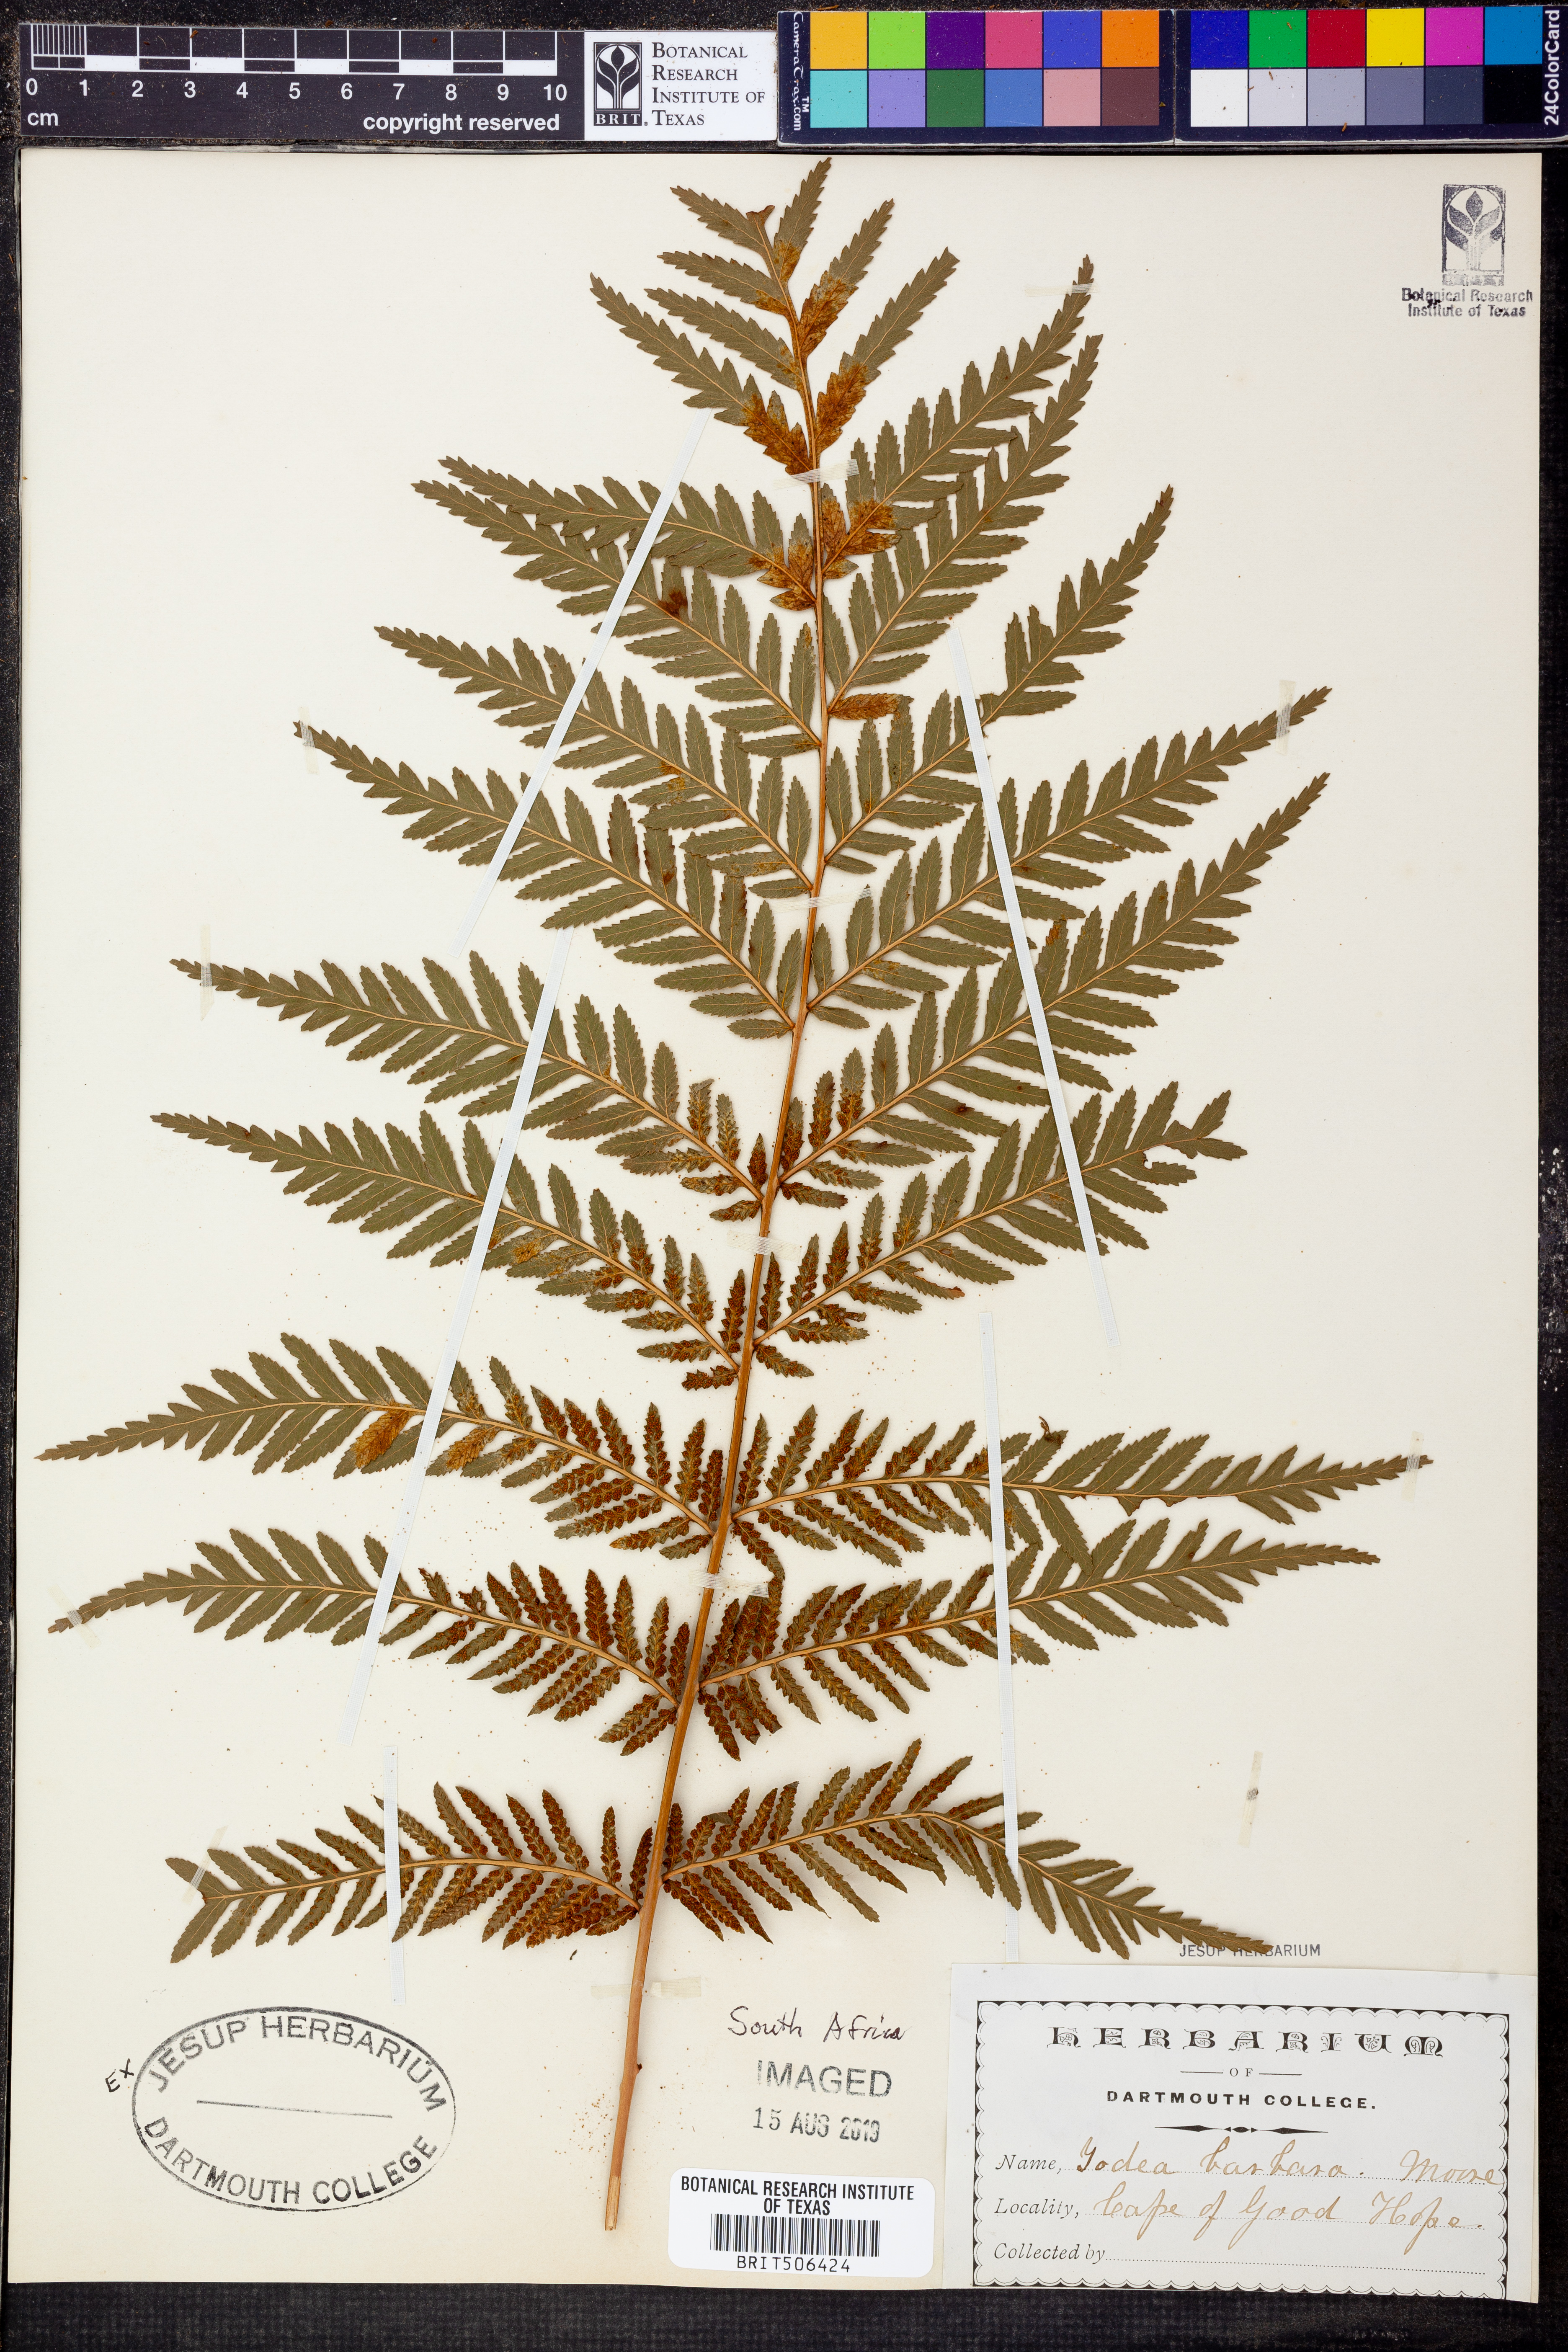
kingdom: Plantae
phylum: Tracheophyta
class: Polypodiopsida
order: Osmundales
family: Osmundaceae
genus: Todea
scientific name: Todea barbara
